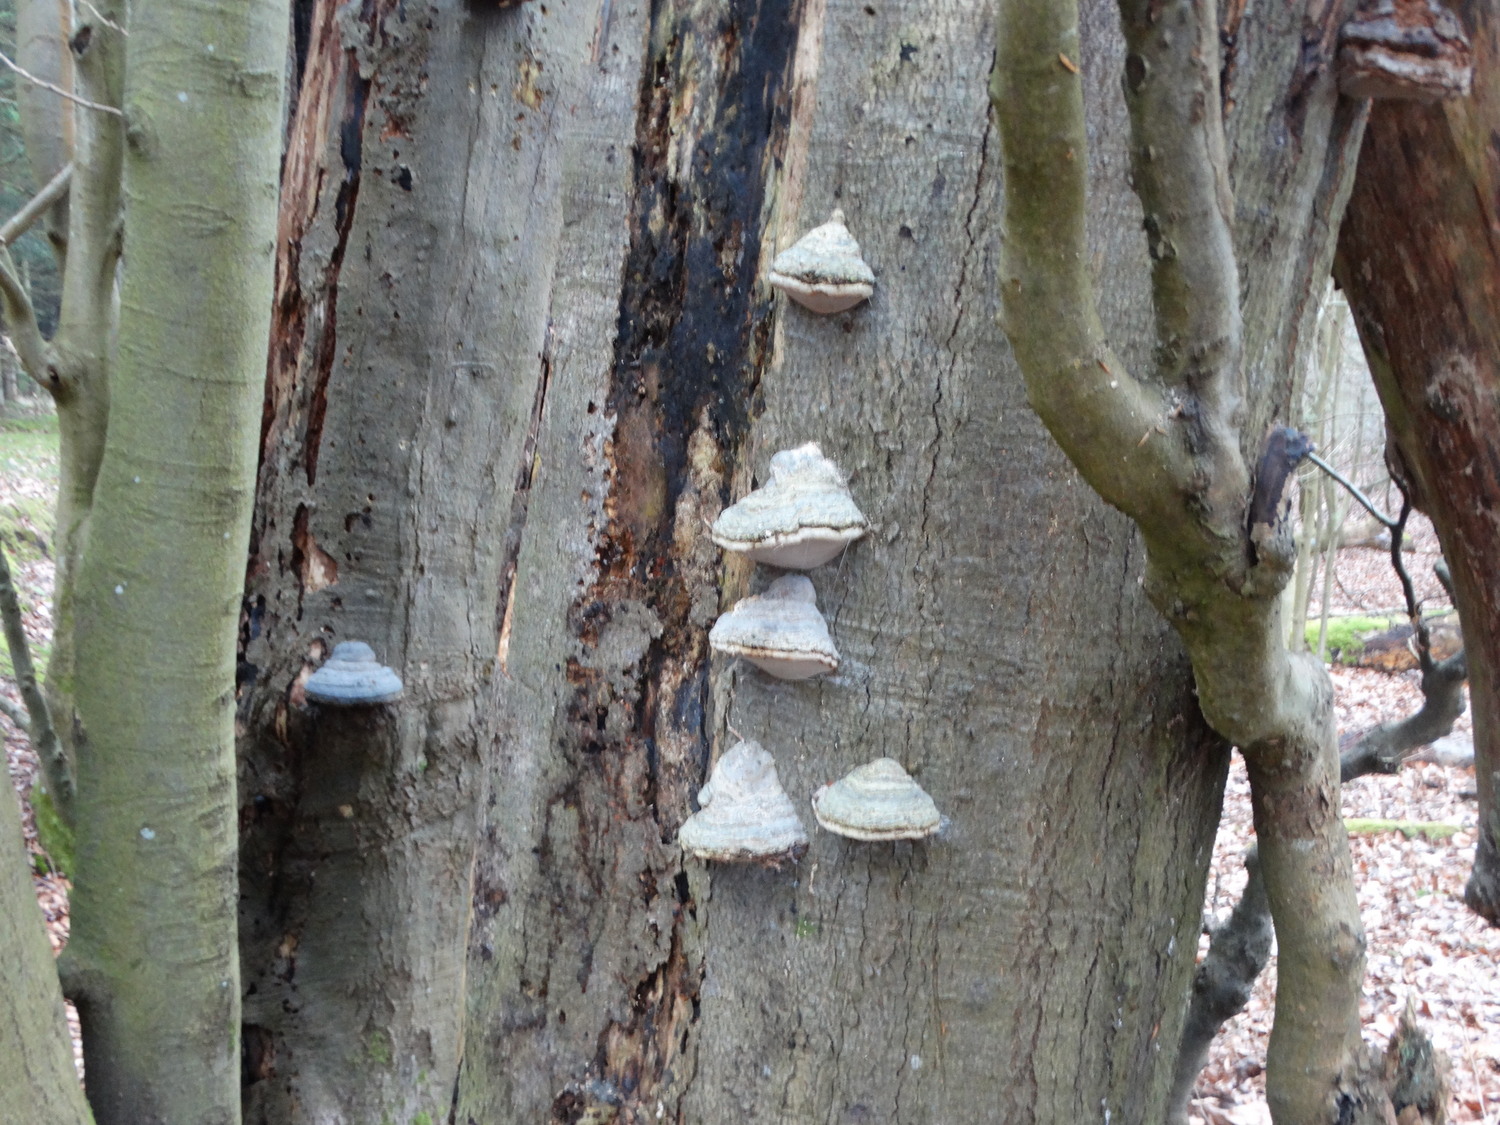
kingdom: Fungi
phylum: Basidiomycota
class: Agaricomycetes
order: Polyporales
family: Polyporaceae
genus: Fomes
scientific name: Fomes fomentarius
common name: tøndersvamp
